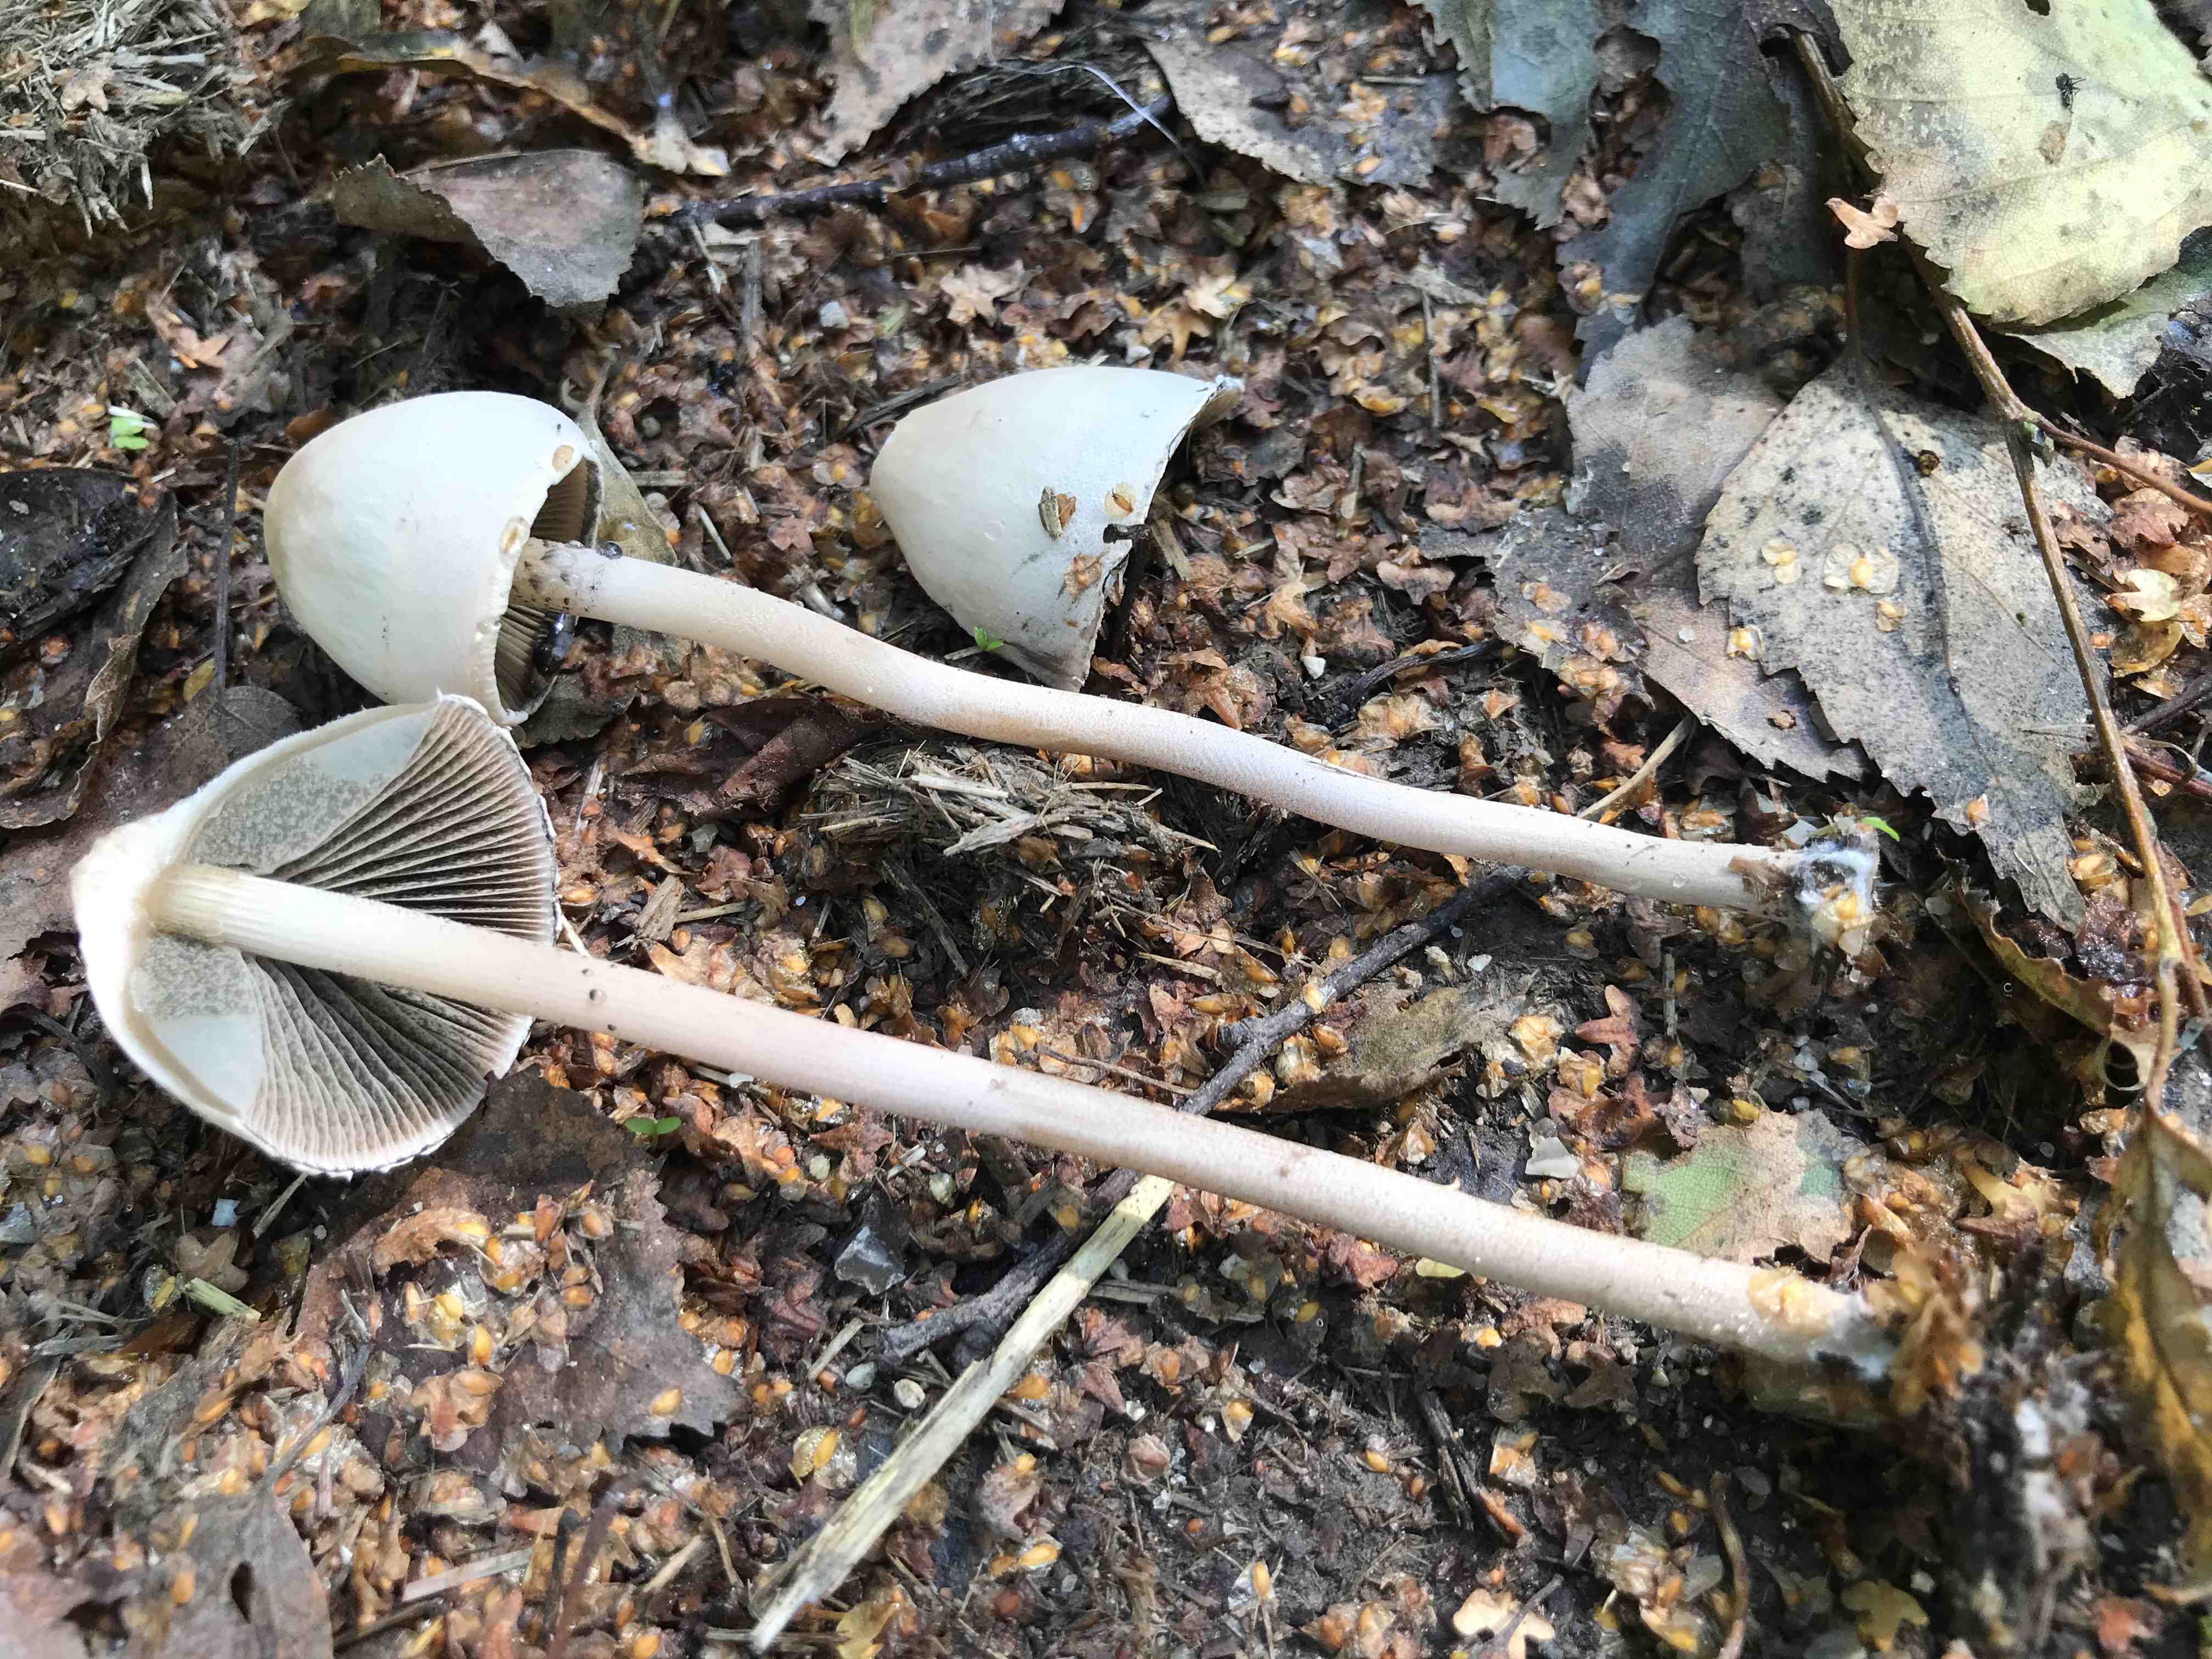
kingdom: Fungi
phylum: Basidiomycota
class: Agaricomycetes
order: Agaricales
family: Bolbitiaceae
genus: Panaeolus
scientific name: Panaeolus papilionaceus
